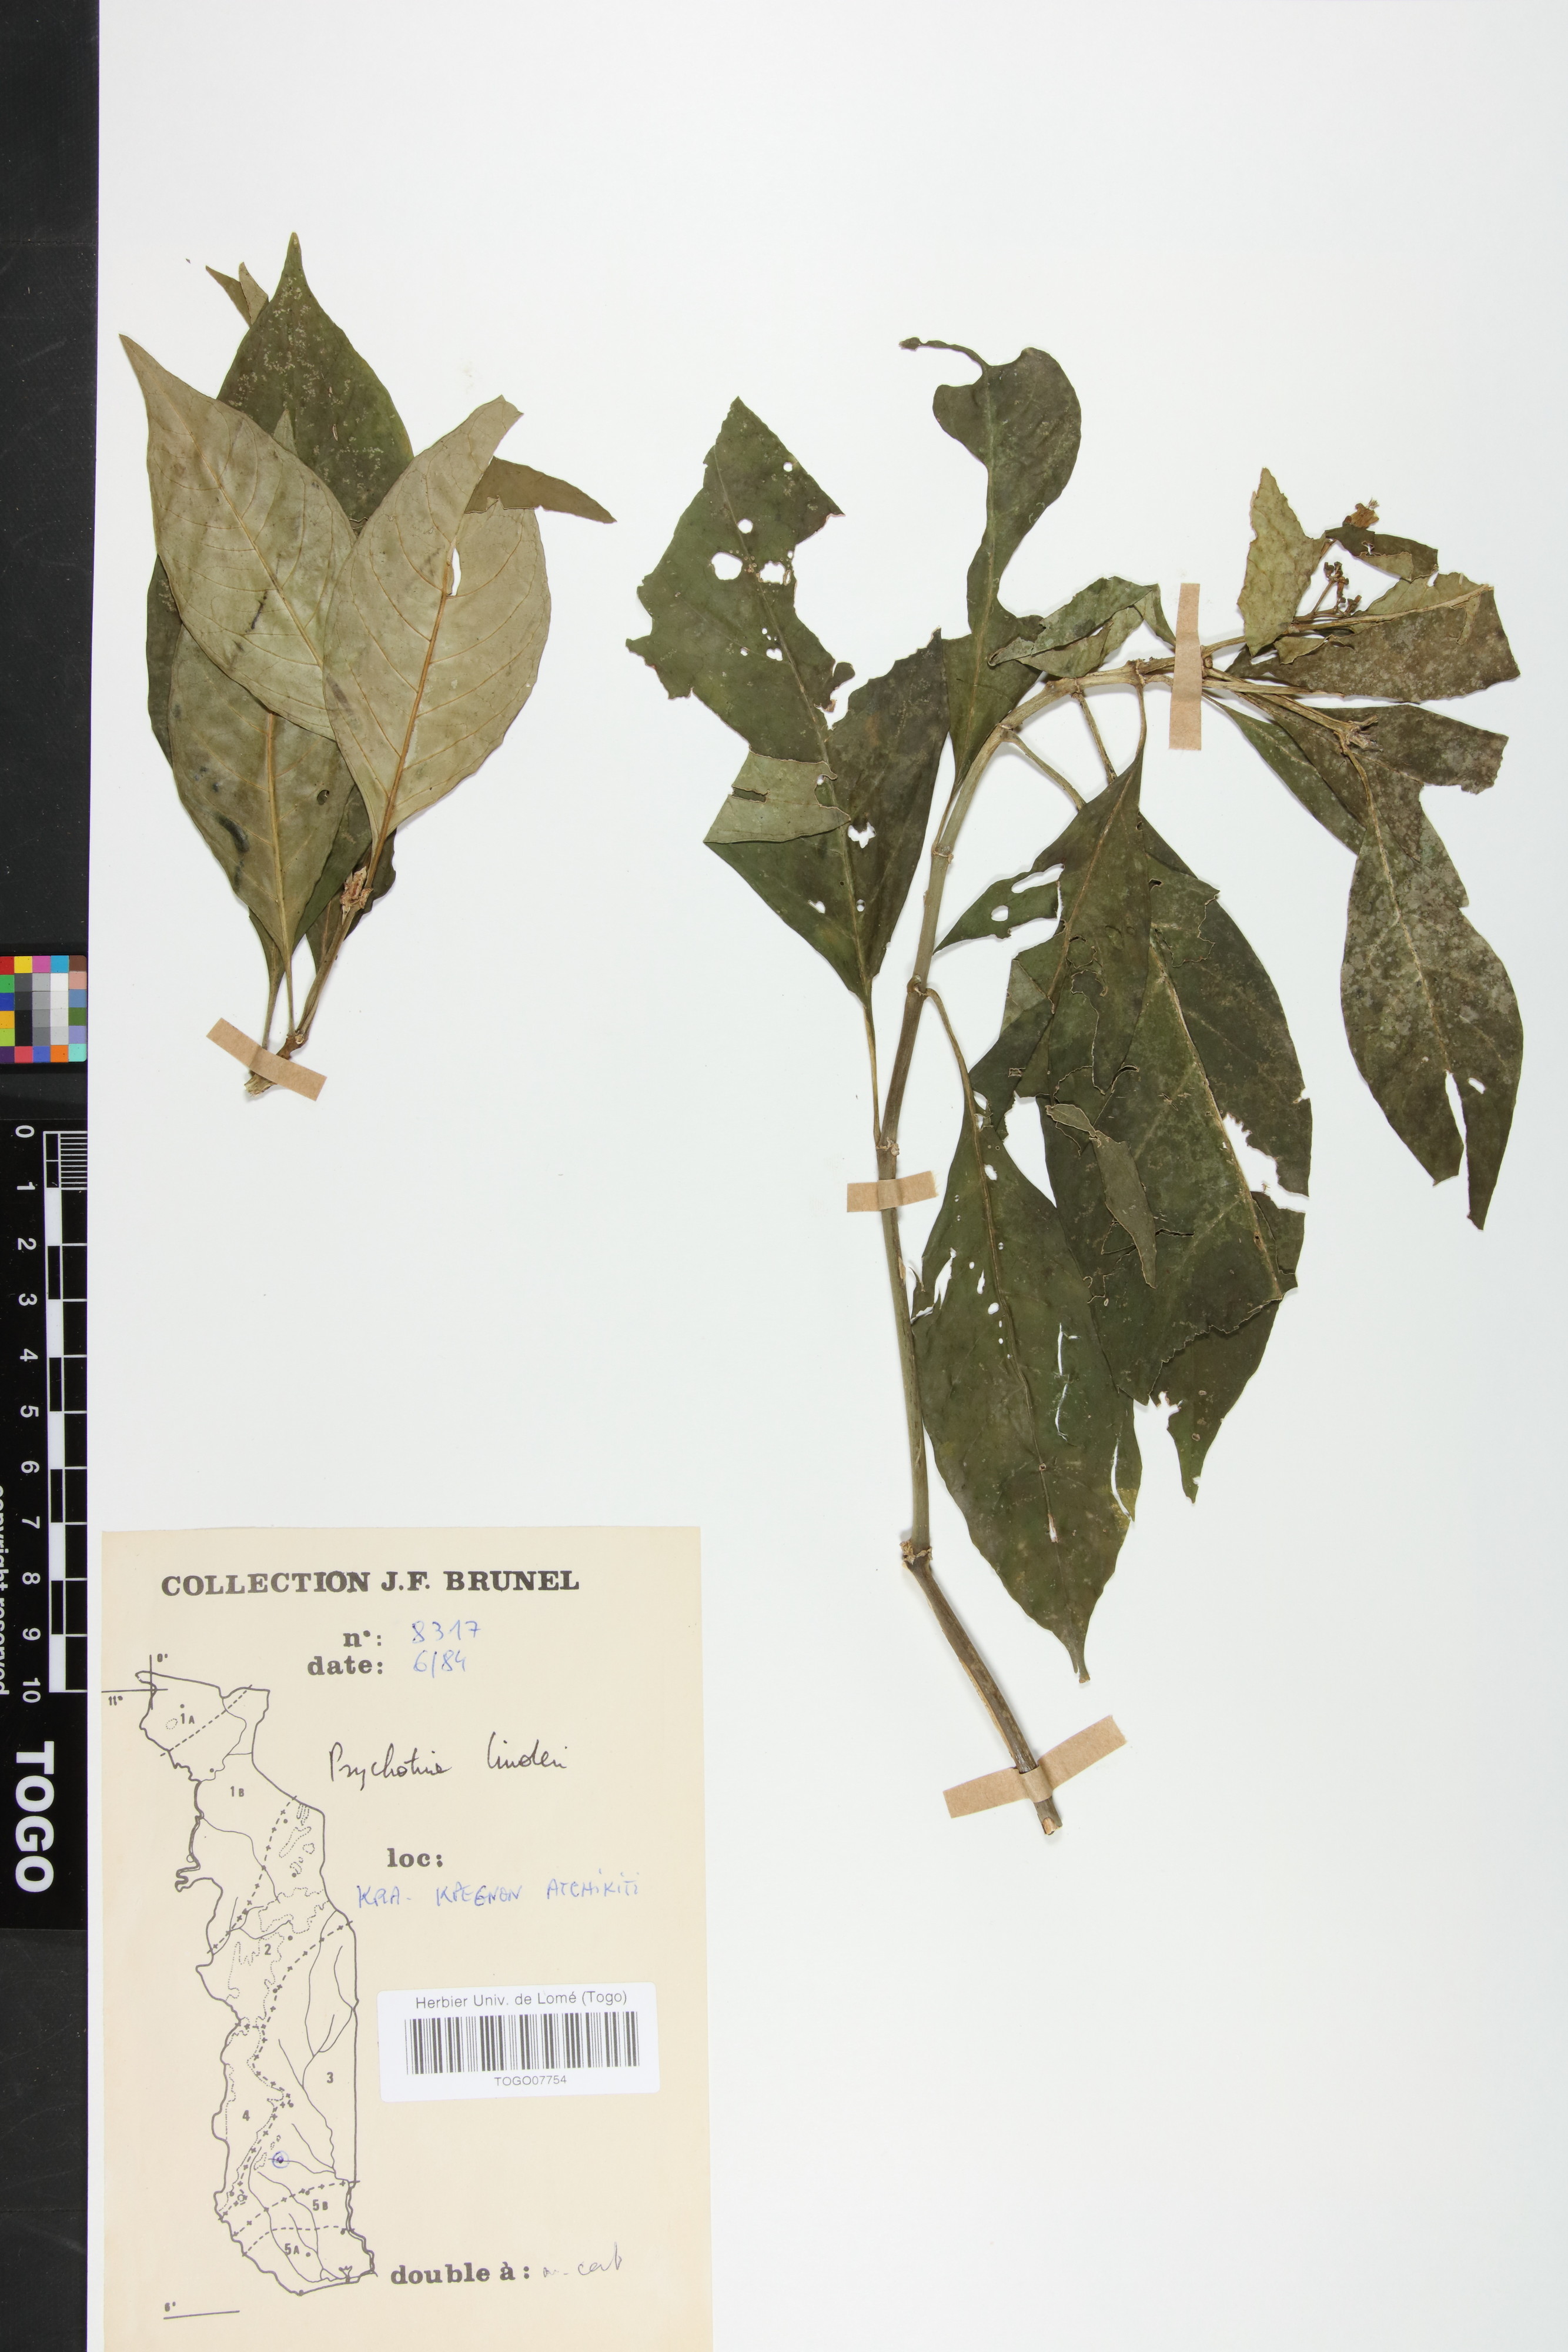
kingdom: Plantae
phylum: Tracheophyta
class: Magnoliopsida
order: Gentianales
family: Rubiaceae
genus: Psychotria
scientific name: Psychotria linderi
